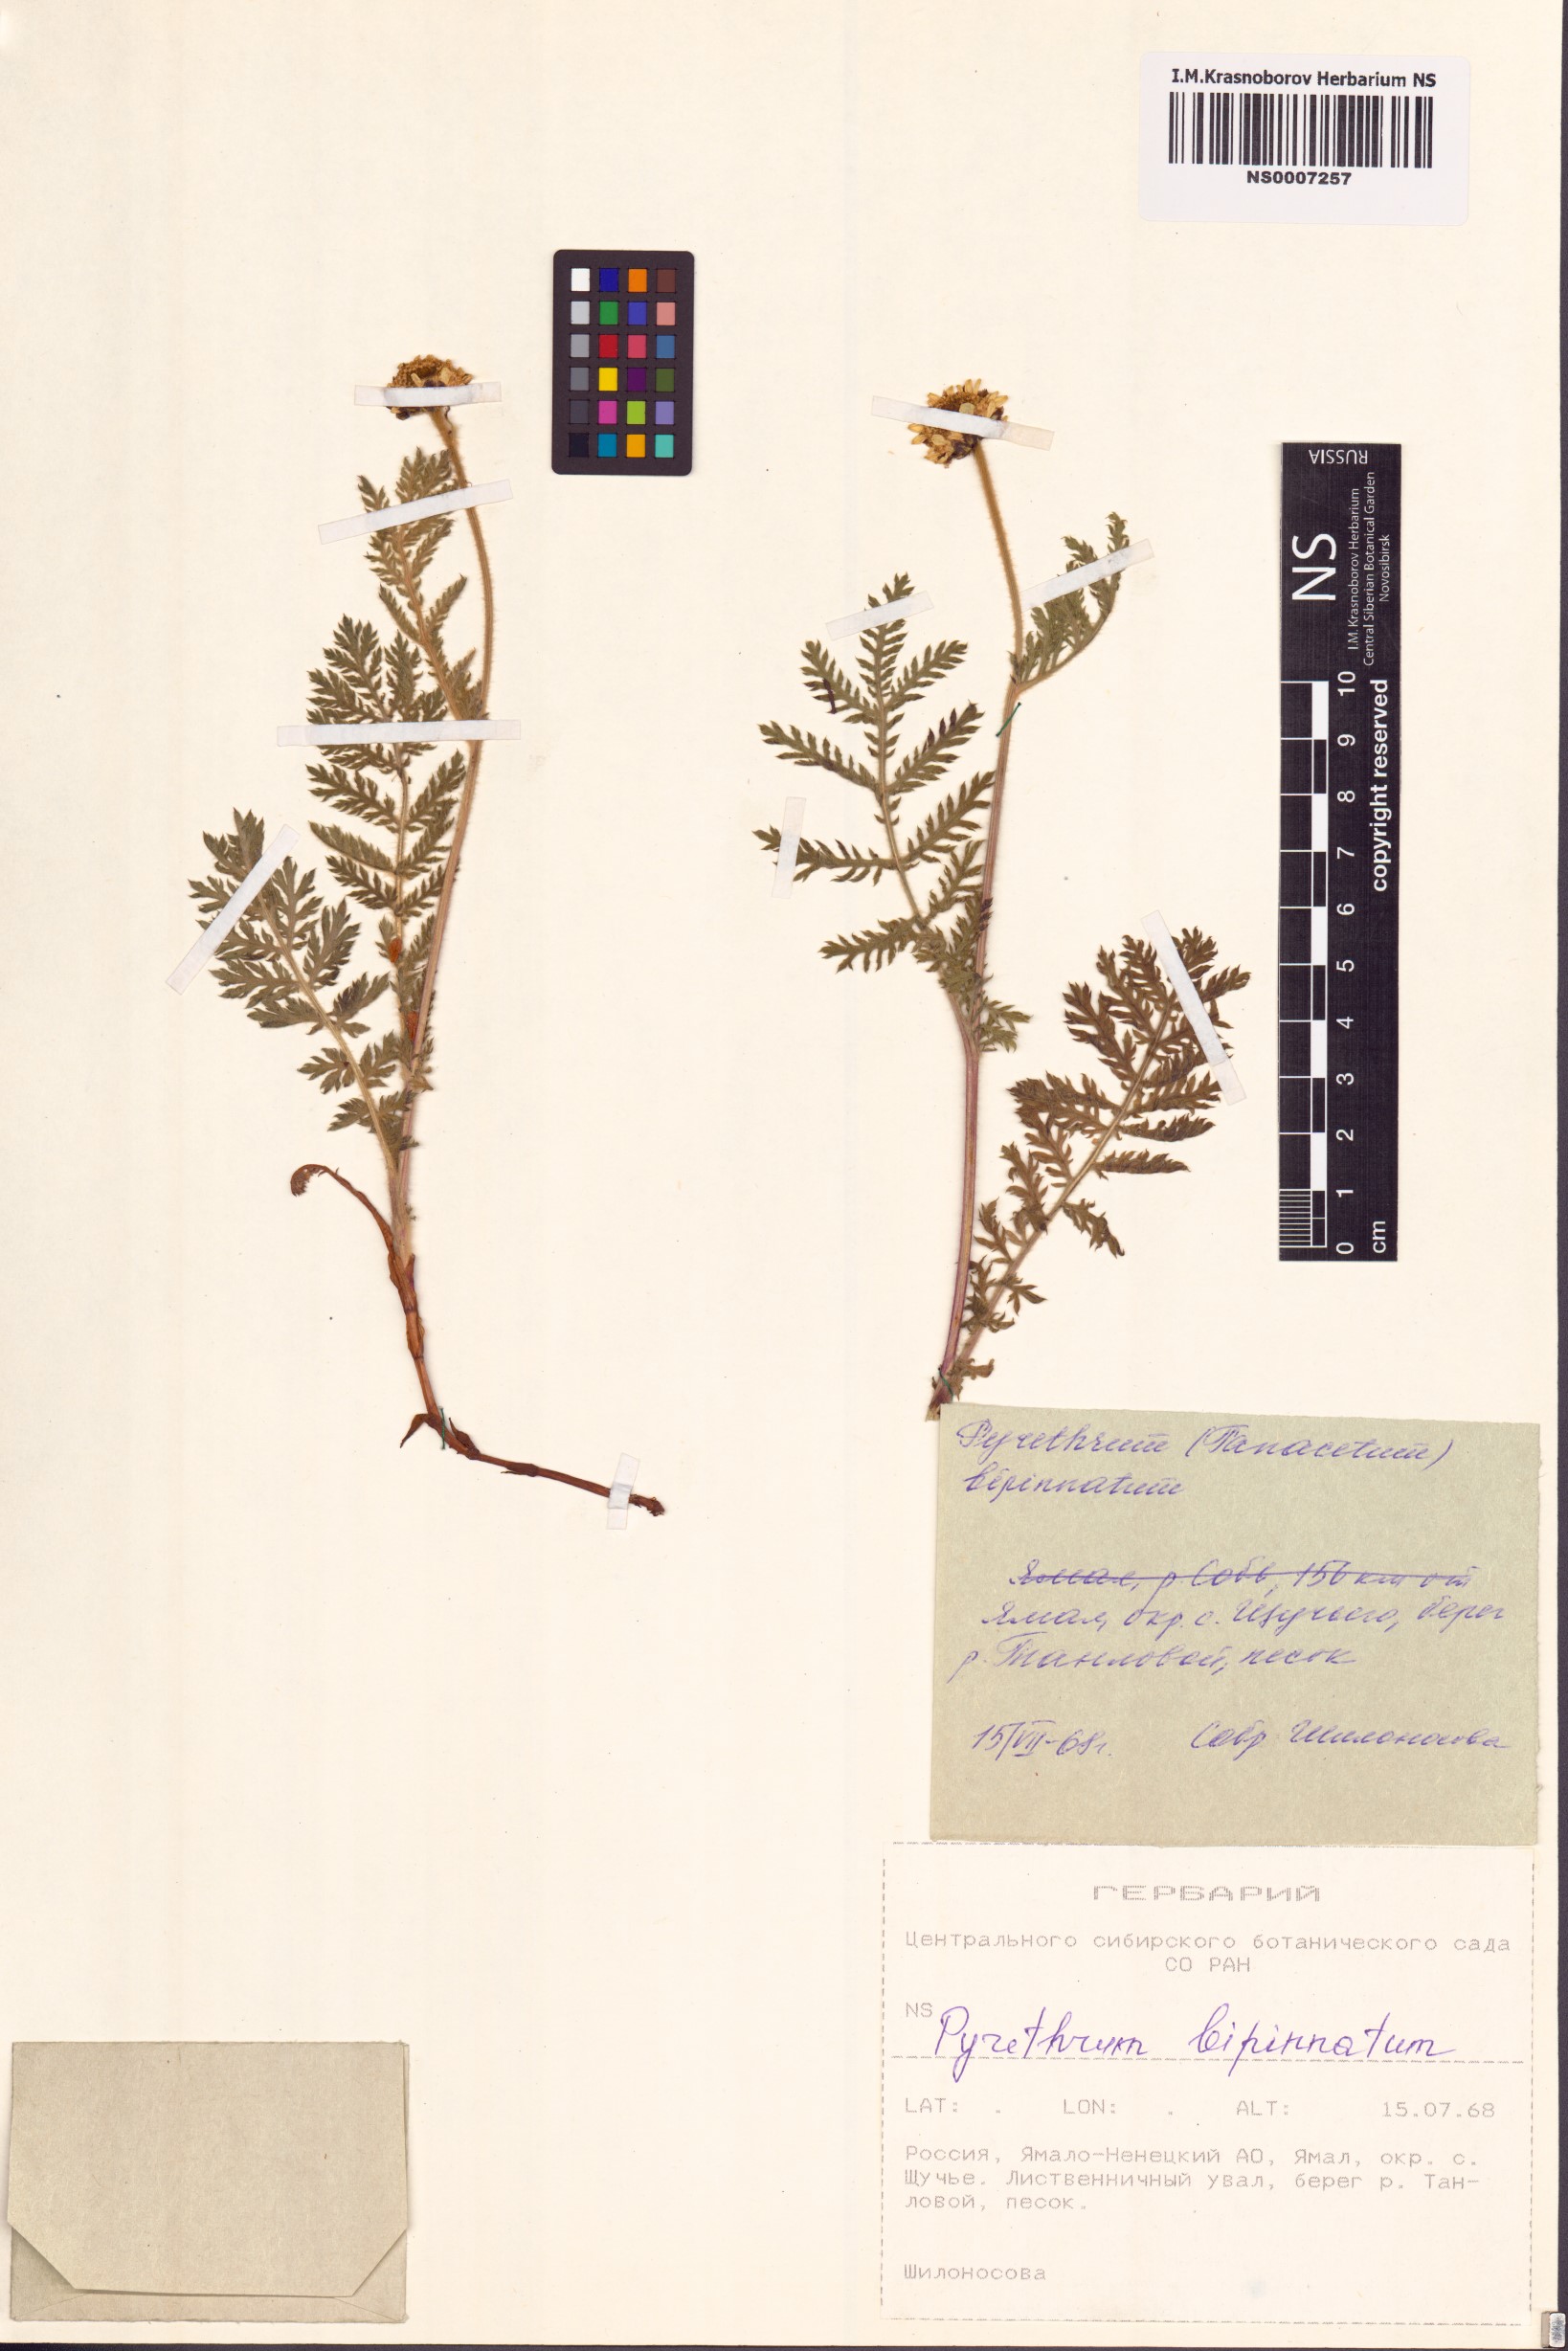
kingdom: Plantae
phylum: Tracheophyta
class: Magnoliopsida
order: Asterales
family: Asteraceae
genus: Tanacetum
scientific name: Tanacetum bipinnatum
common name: Dwarf tansy
